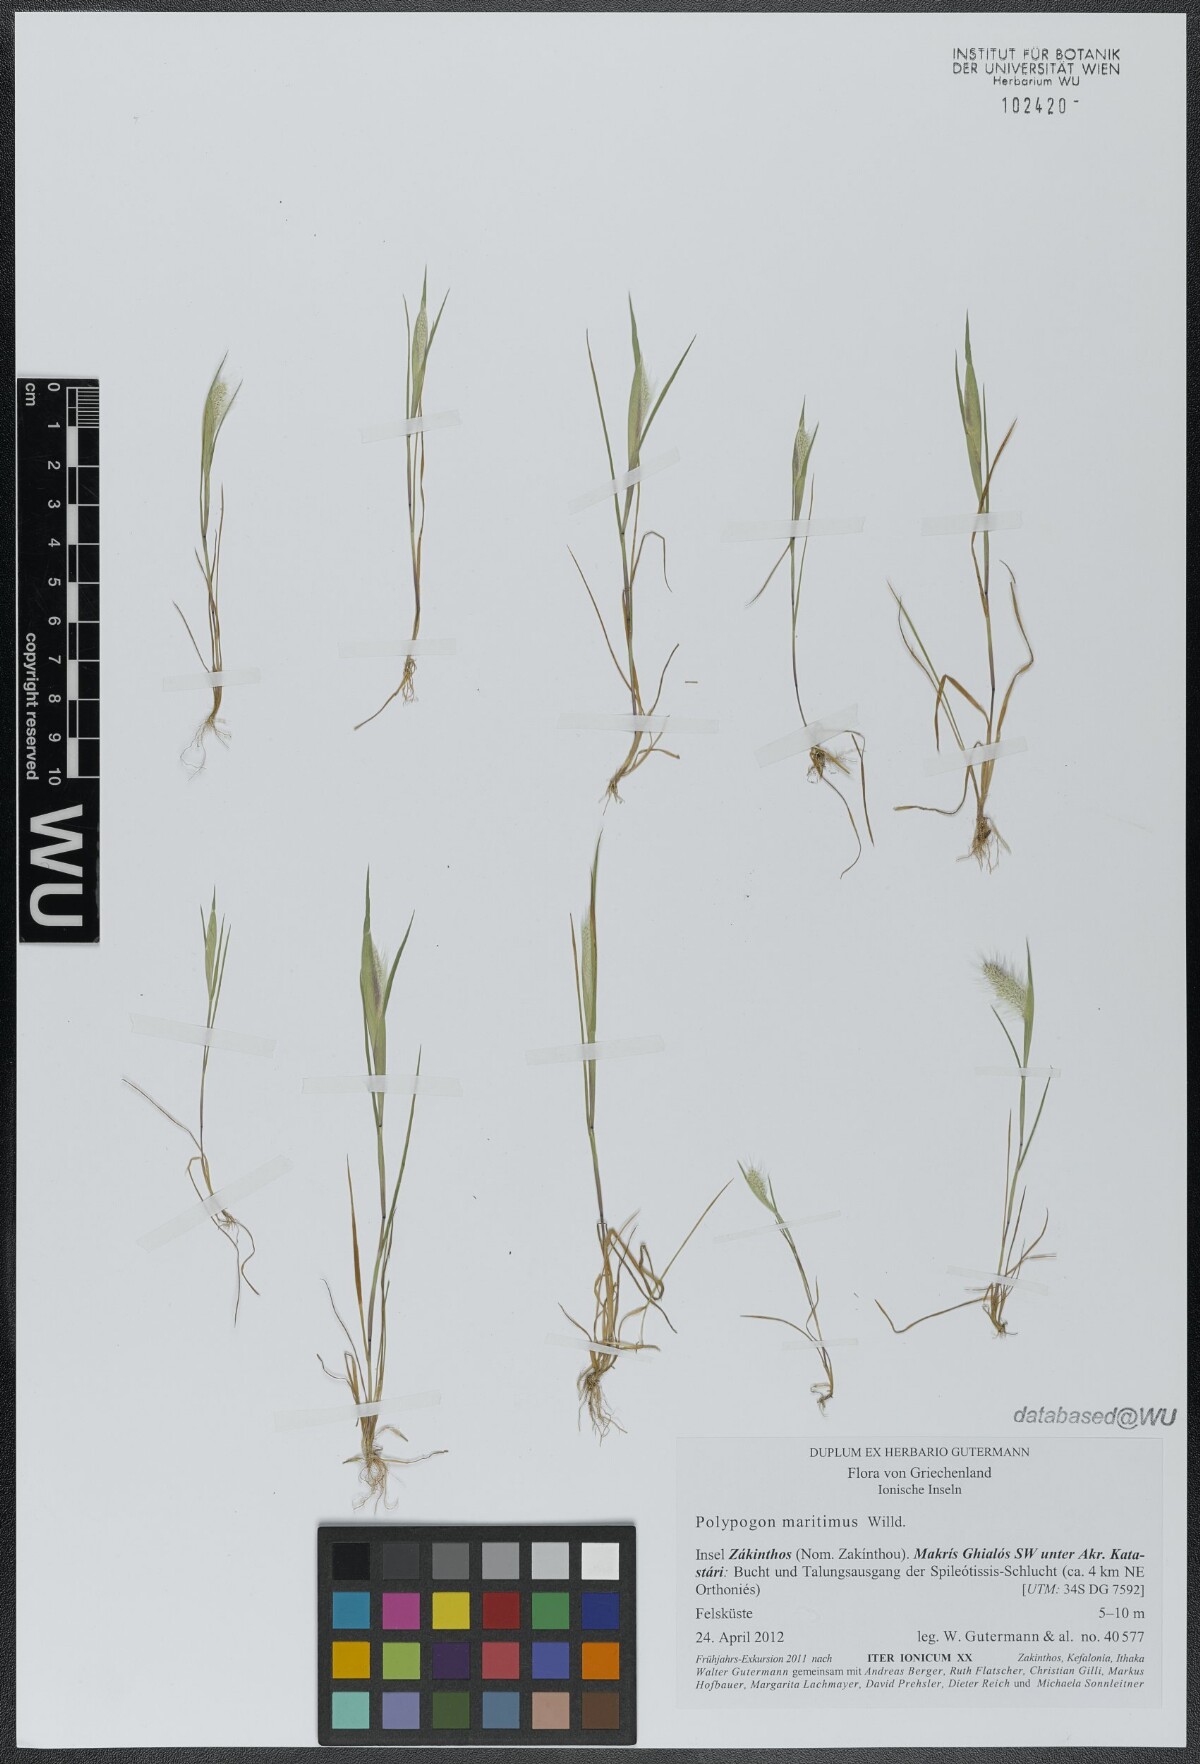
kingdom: Plantae
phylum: Tracheophyta
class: Liliopsida
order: Poales
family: Poaceae
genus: Polypogon
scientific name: Polypogon maritimus
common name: Mediterranean rabbitsfoot grass
